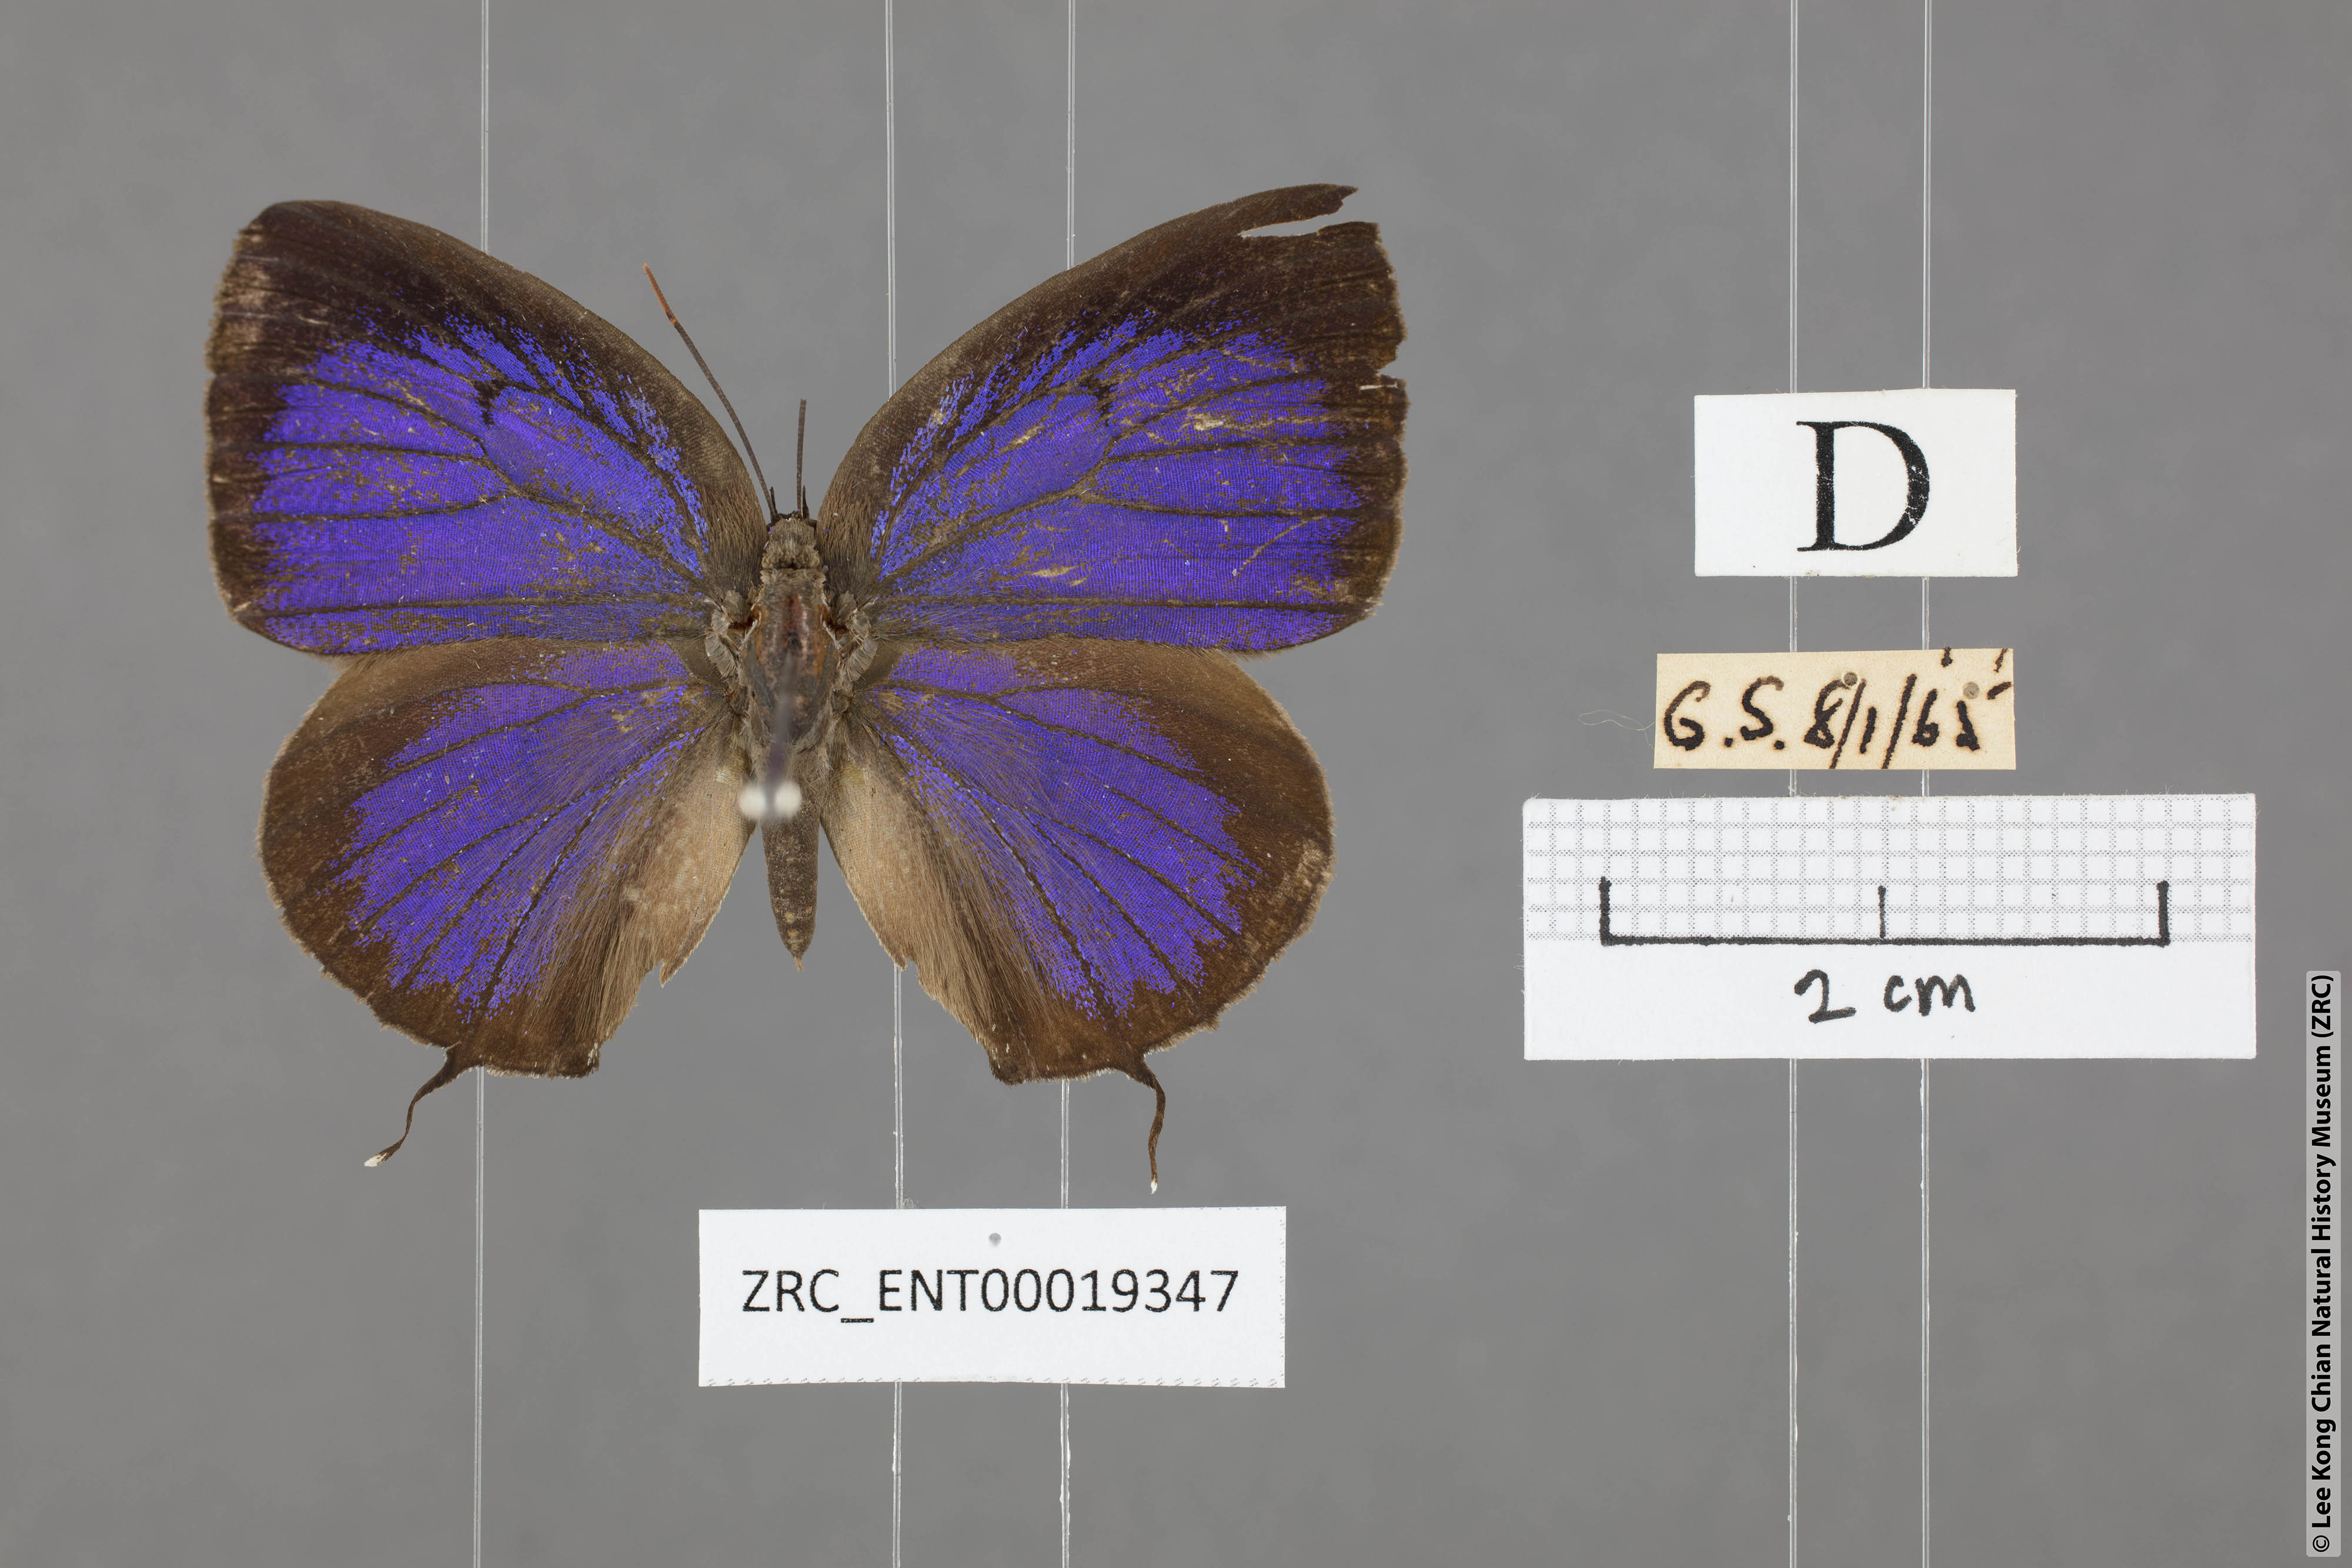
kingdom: Animalia
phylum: Arthropoda
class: Insecta
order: Lepidoptera
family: Lycaenidae
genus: Arhopala
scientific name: Arhopala cleander
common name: Large mergui oakblue
